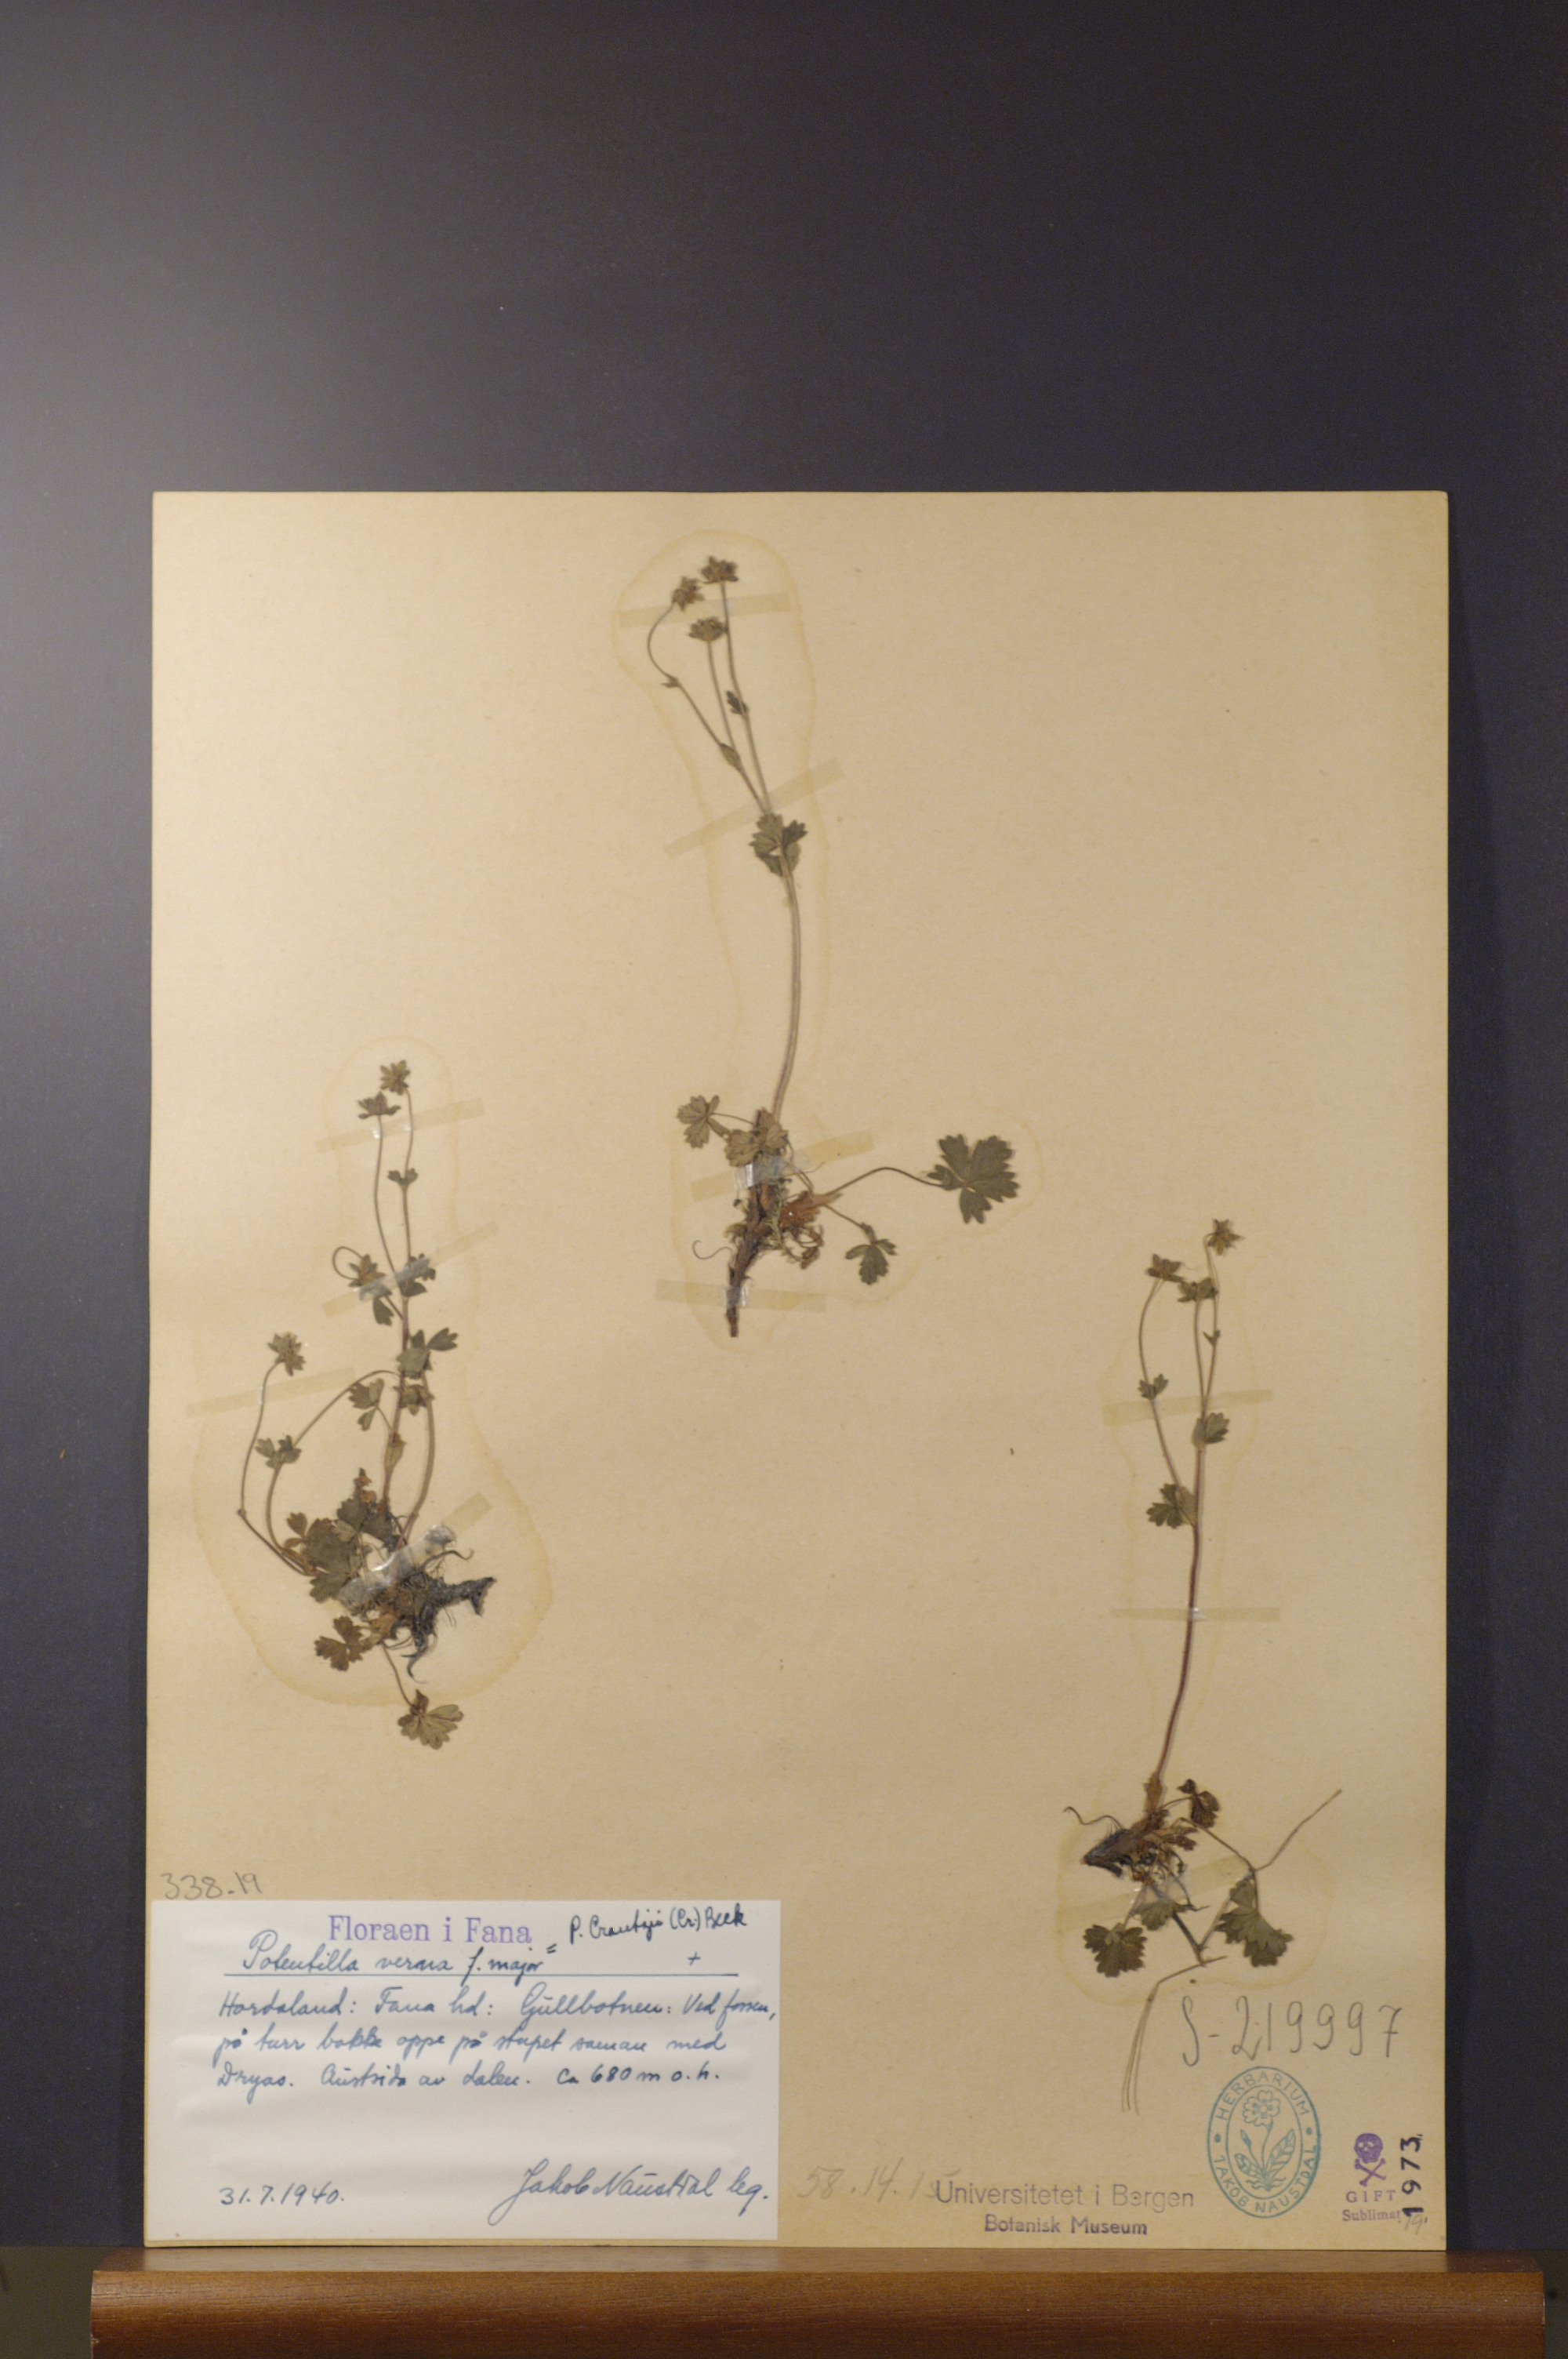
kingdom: Plantae
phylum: Tracheophyta
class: Magnoliopsida
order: Rosales
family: Rosaceae
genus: Potentilla
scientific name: Potentilla crantzii
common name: Alpine cinquefoil
